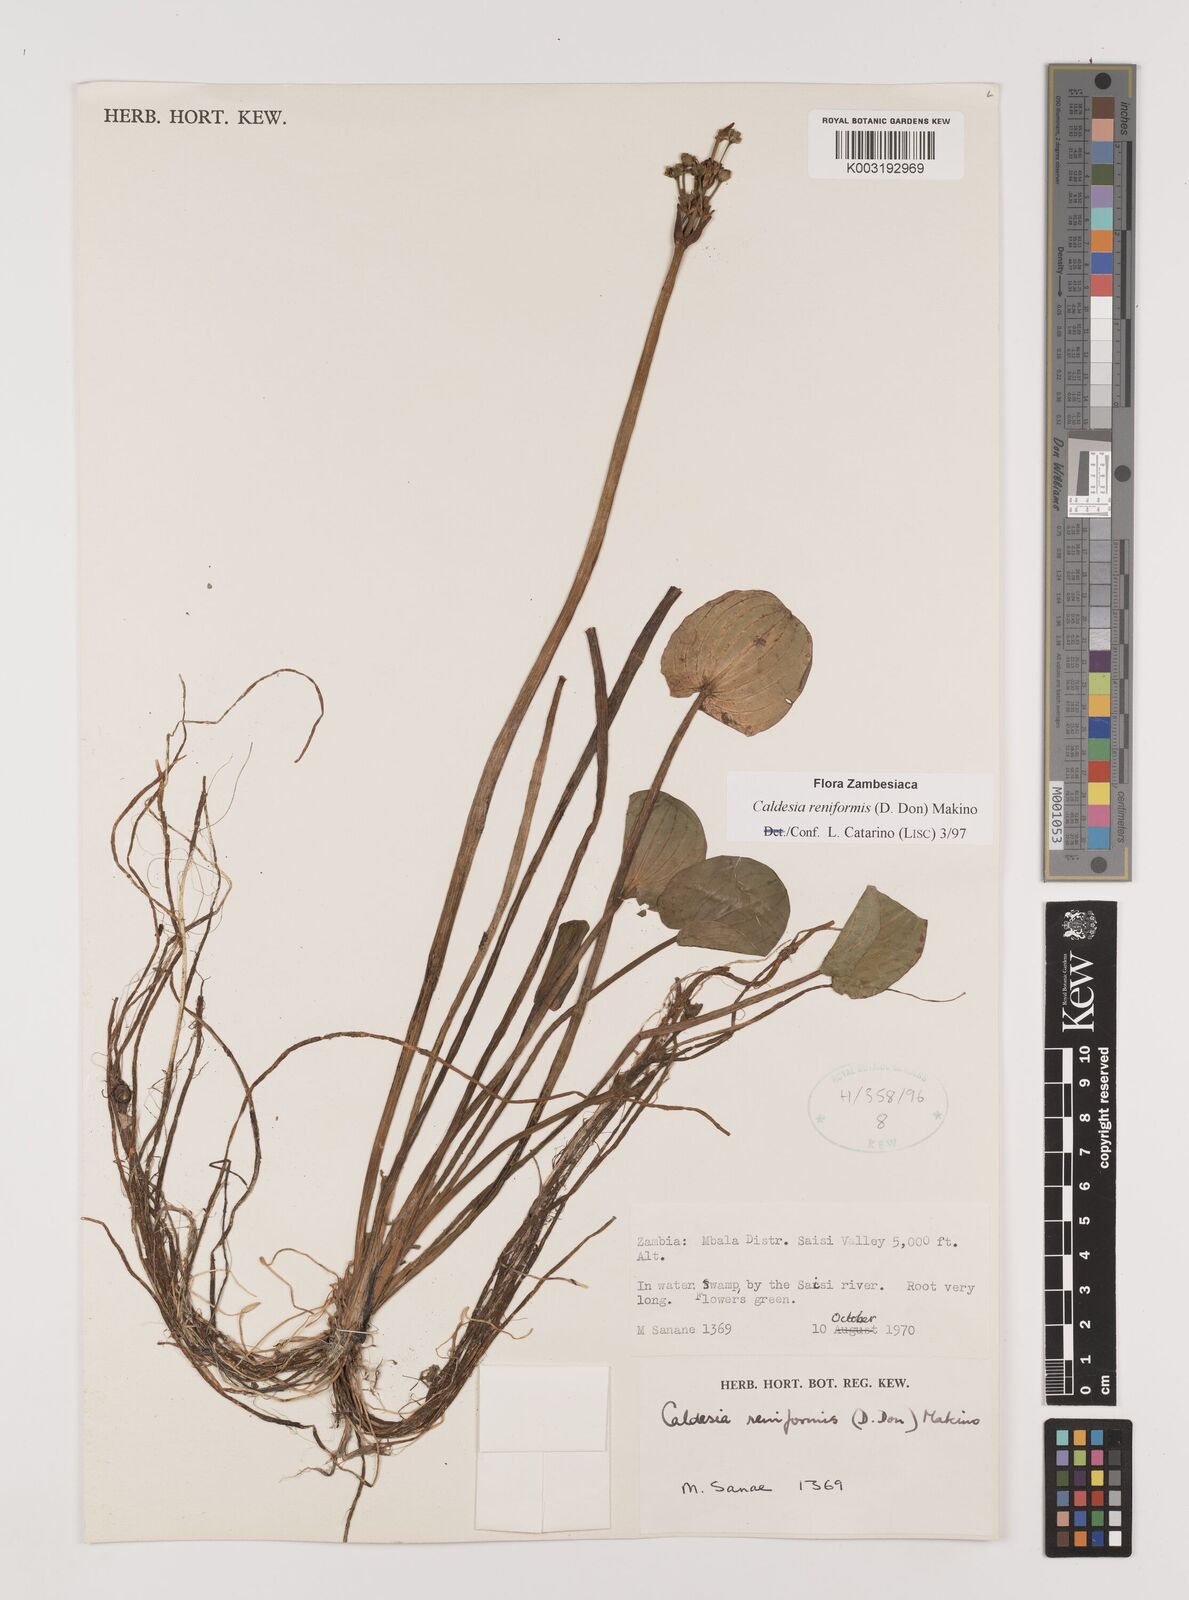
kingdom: Plantae
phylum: Tracheophyta
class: Liliopsida
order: Alismatales
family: Alismataceae
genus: Caldesia
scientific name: Caldesia parnassifolia
